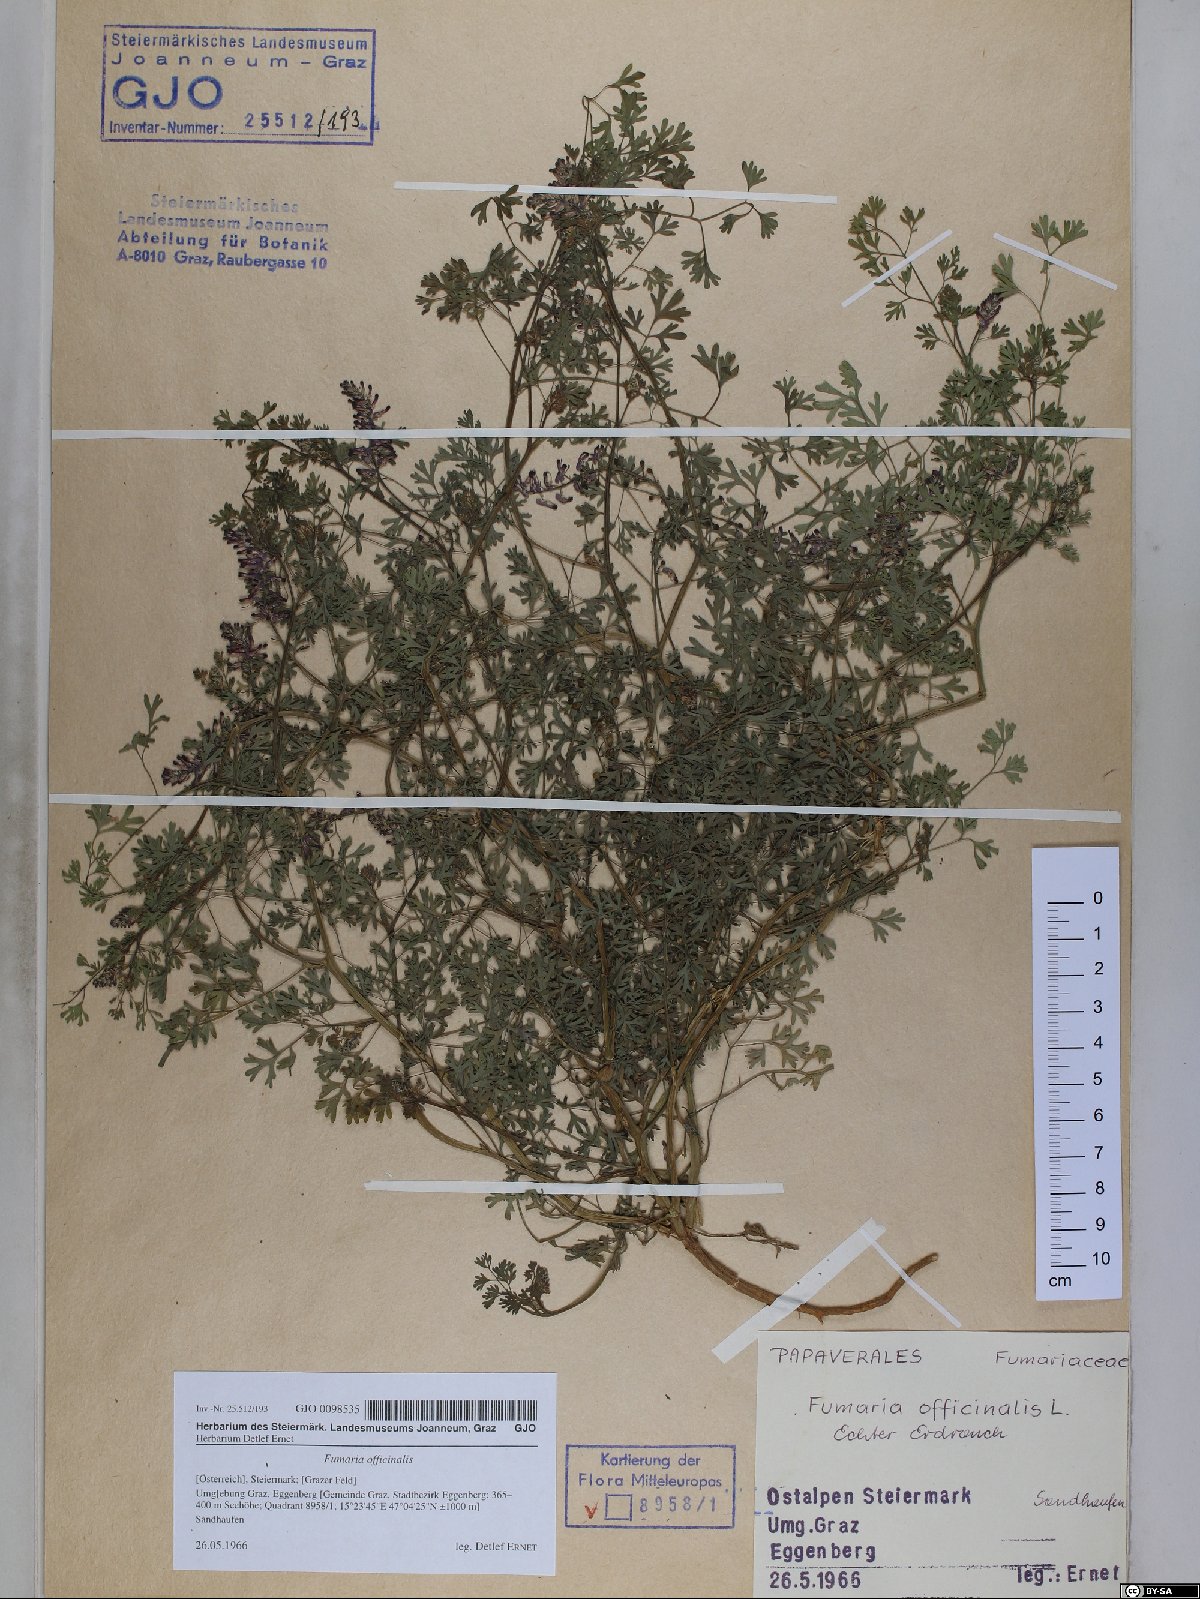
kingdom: Plantae
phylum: Tracheophyta
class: Magnoliopsida
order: Ranunculales
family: Papaveraceae
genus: Fumaria
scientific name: Fumaria officinalis
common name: Common fumitory
